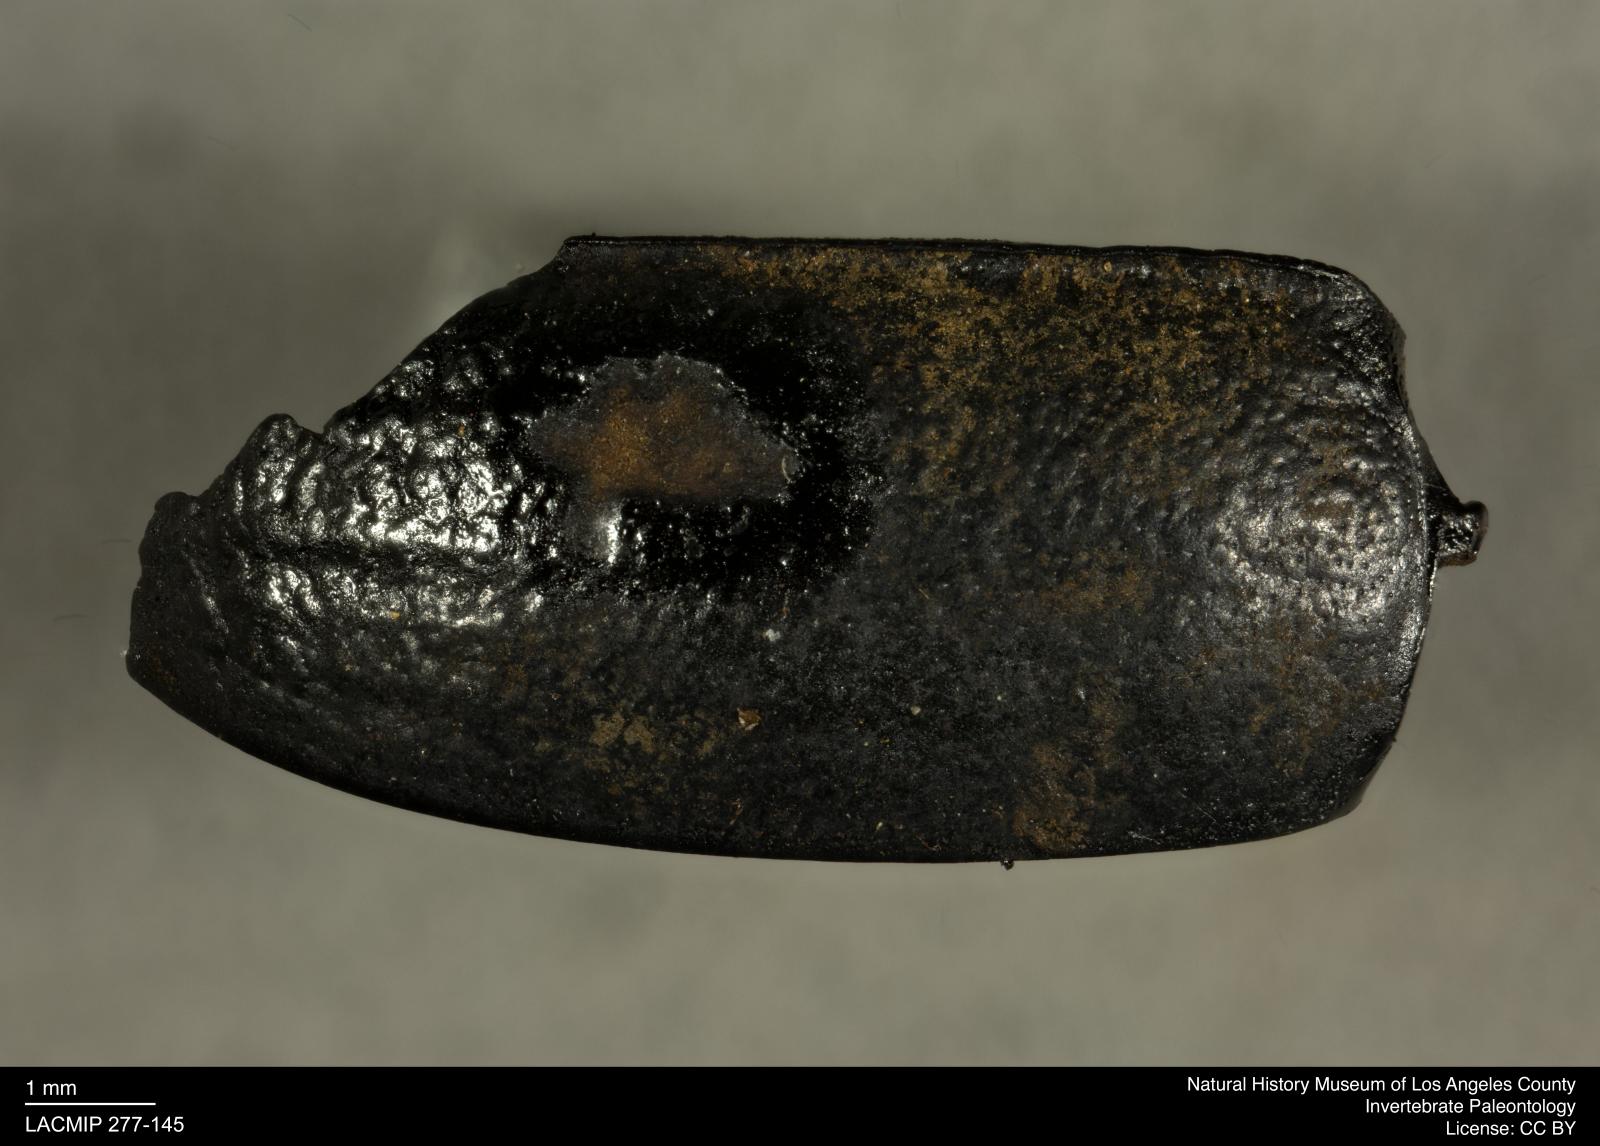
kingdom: Animalia
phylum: Arthropoda
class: Insecta
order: Coleoptera
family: Tenebrionidae
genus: Coniontis
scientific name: Coniontis abdominalis
